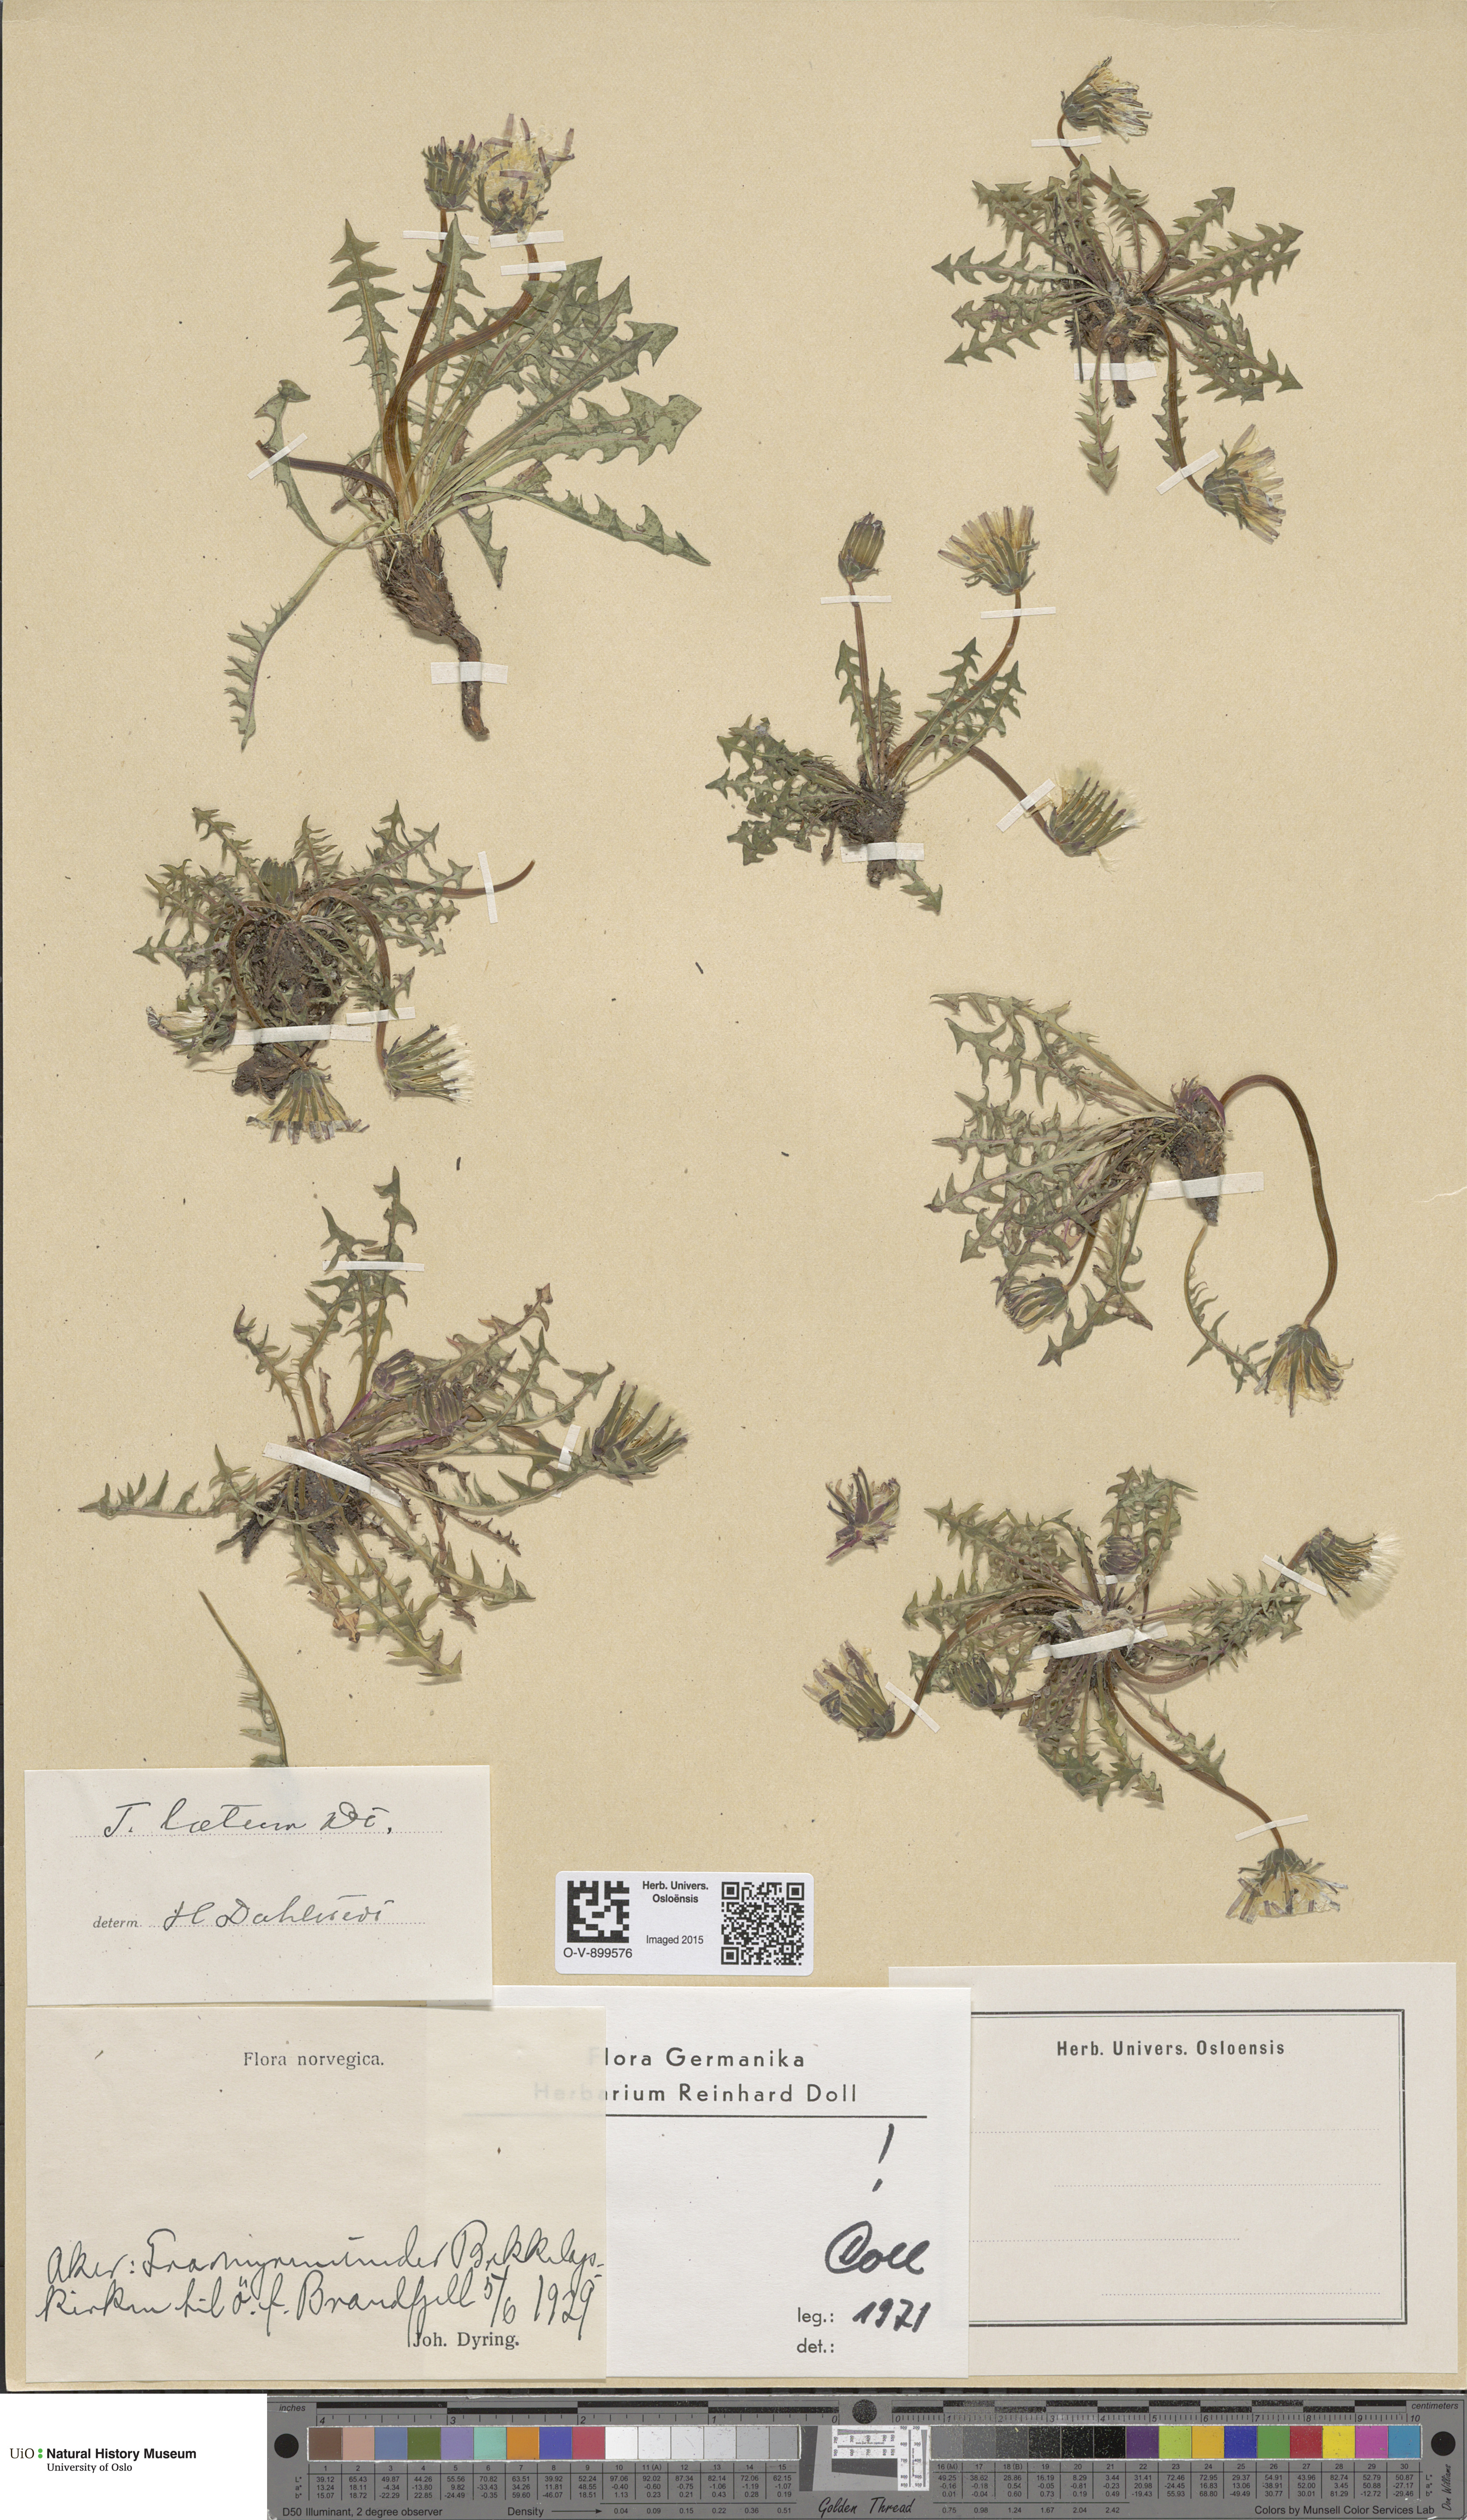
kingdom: Plantae
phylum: Tracheophyta
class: Magnoliopsida
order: Asterales
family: Asteraceae
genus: Taraxacum
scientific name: Taraxacum laetum
